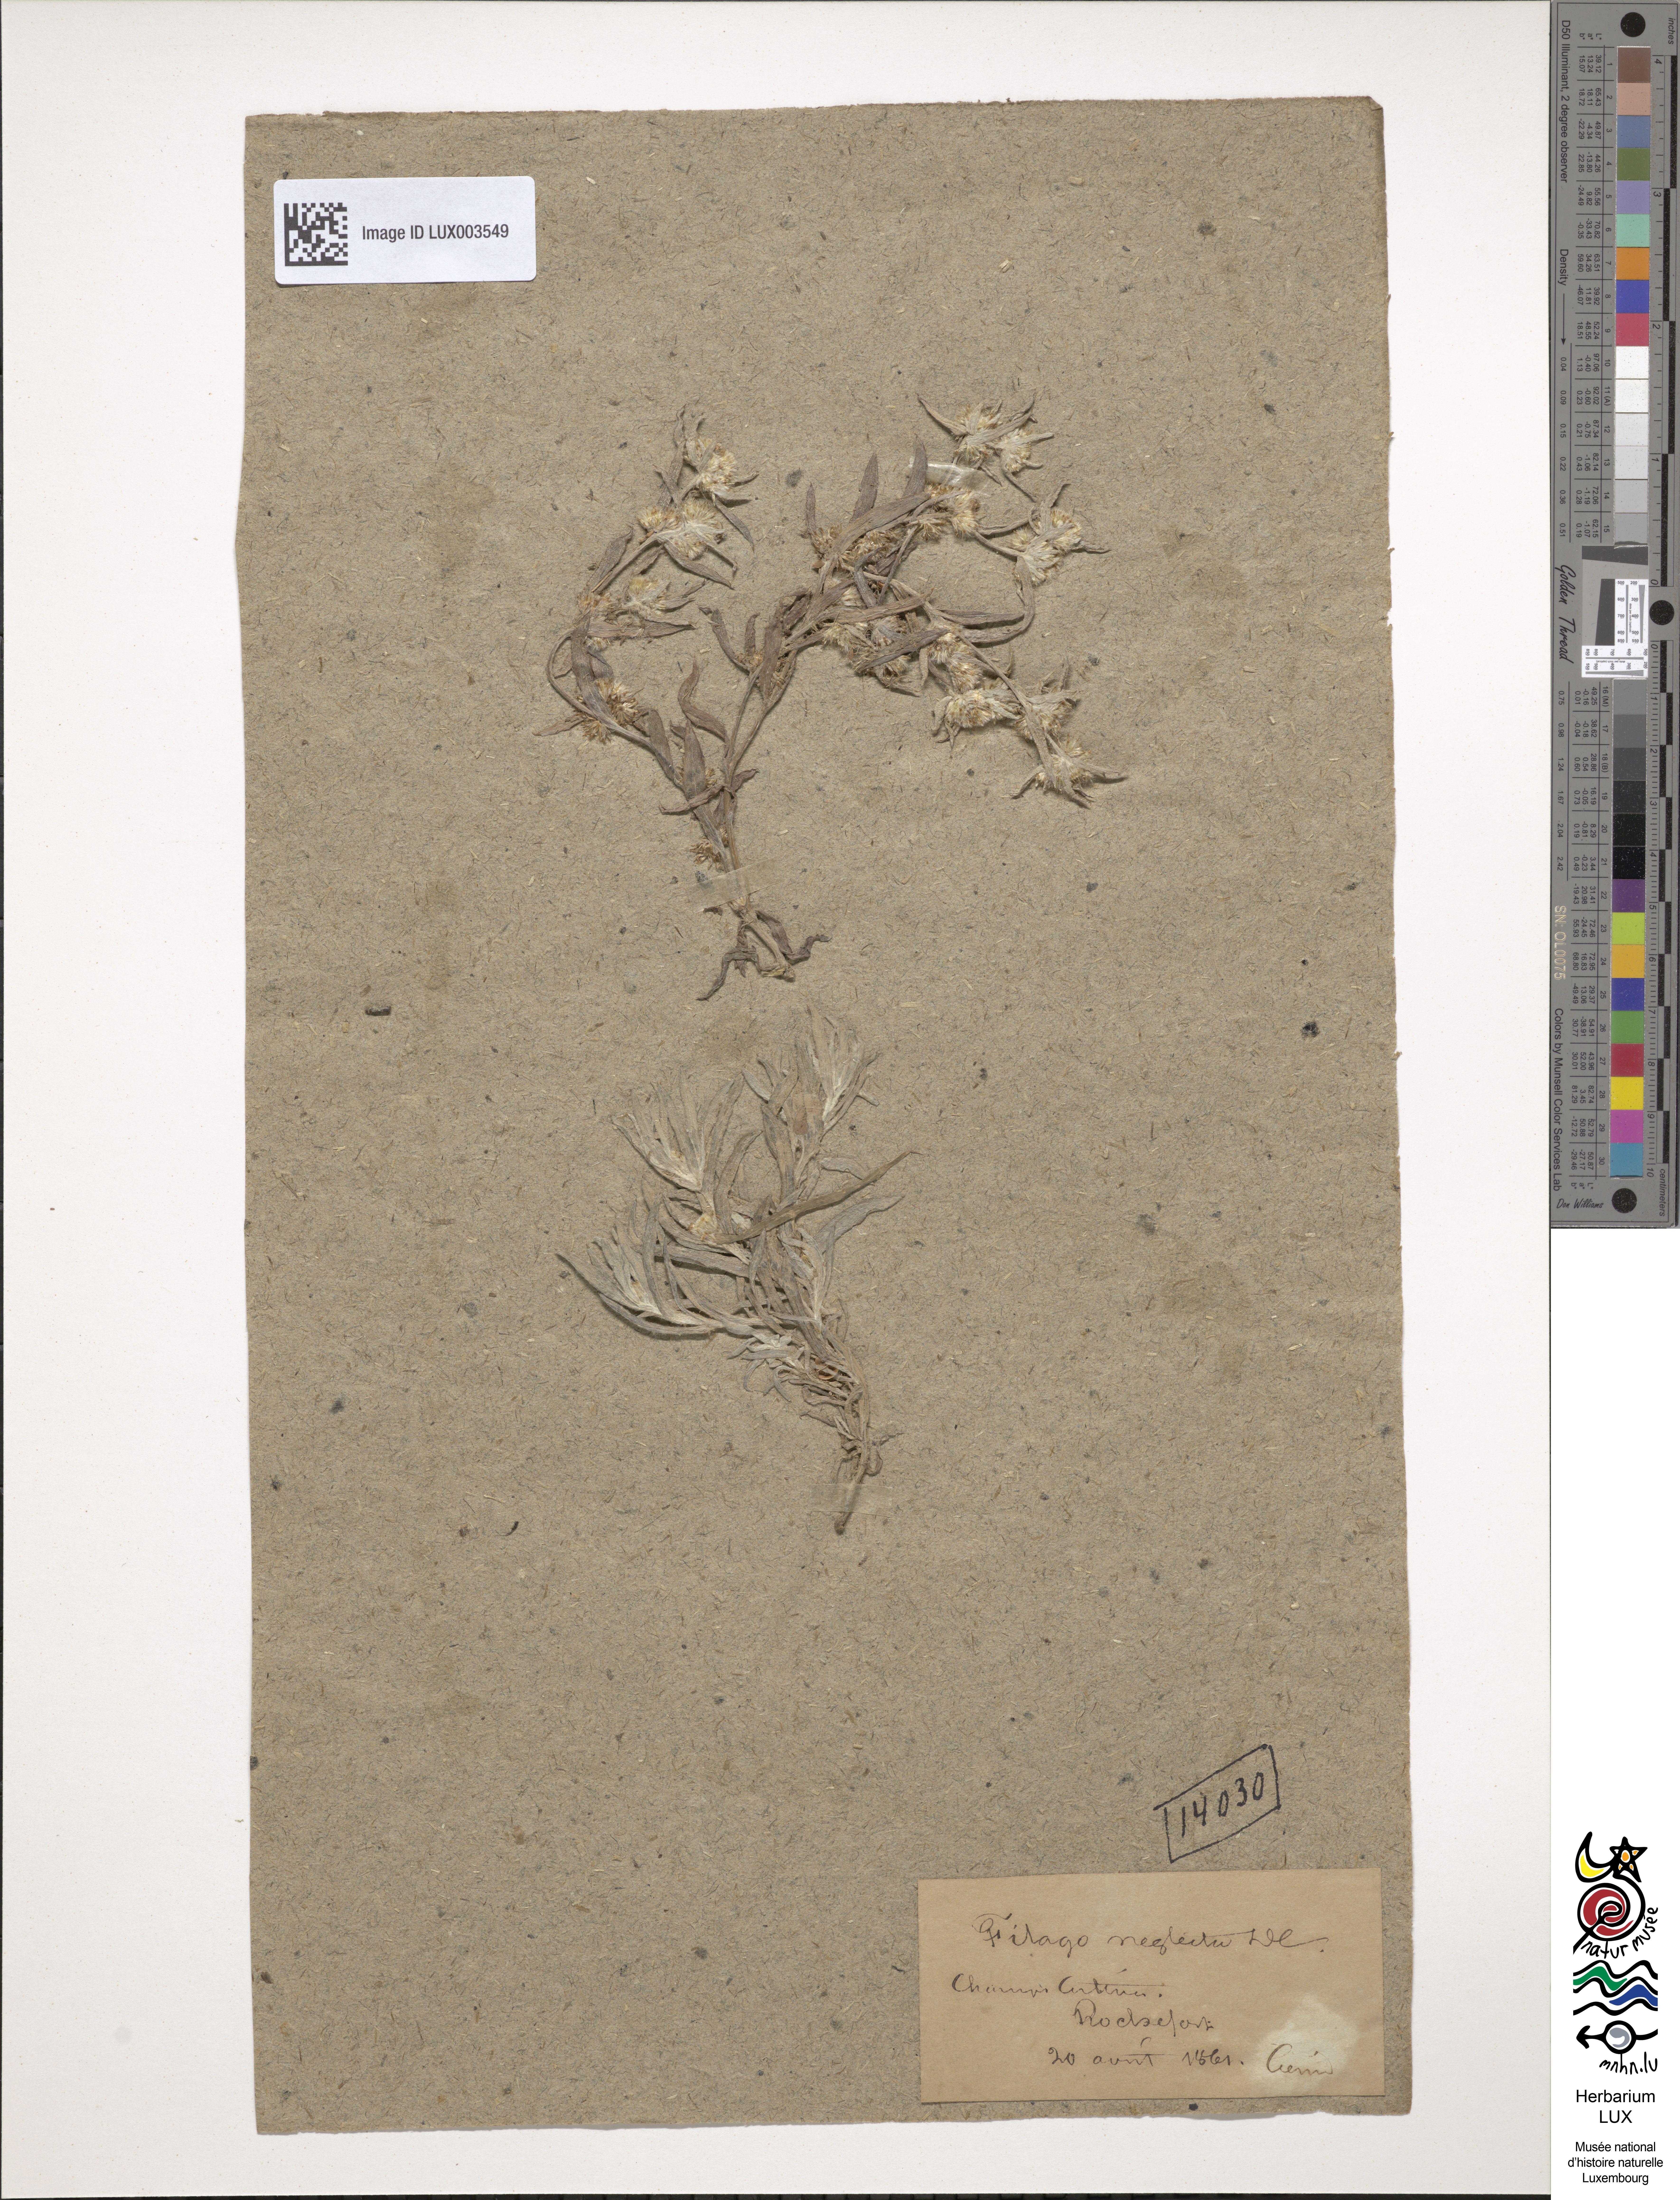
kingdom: Plantae
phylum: Tracheophyta
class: Magnoliopsida
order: Asterales
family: Asteraceae
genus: Logfia
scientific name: Logfia neglecta
